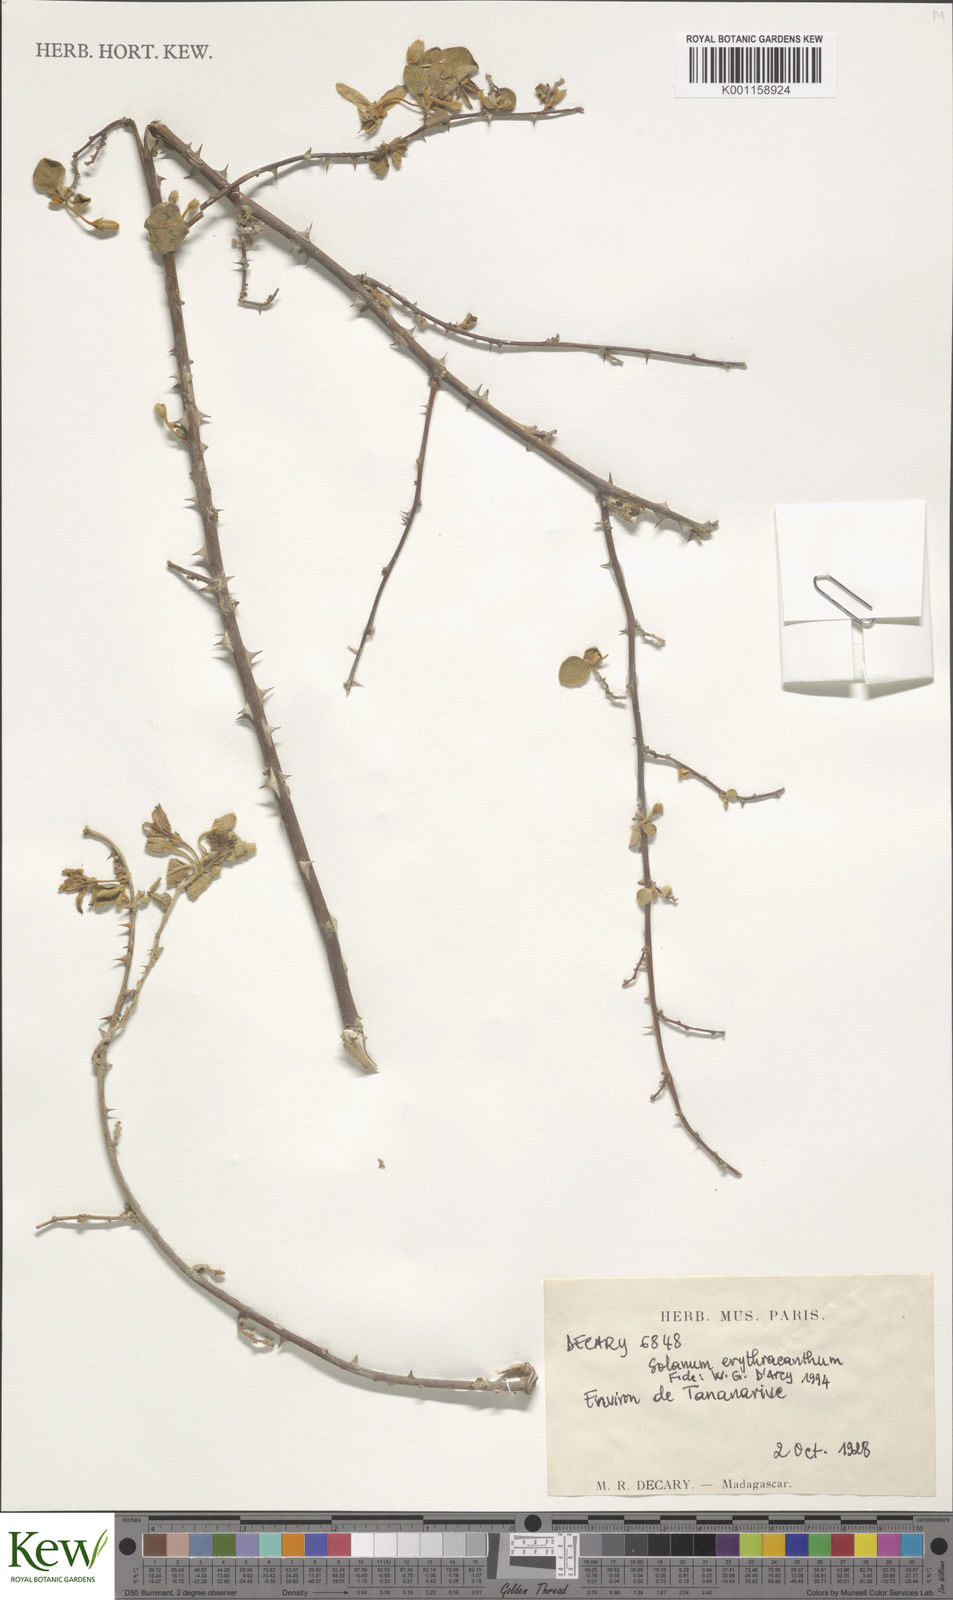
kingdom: Plantae
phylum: Tracheophyta
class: Magnoliopsida
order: Solanales
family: Solanaceae
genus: Solanum
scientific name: Solanum erythracanthum
